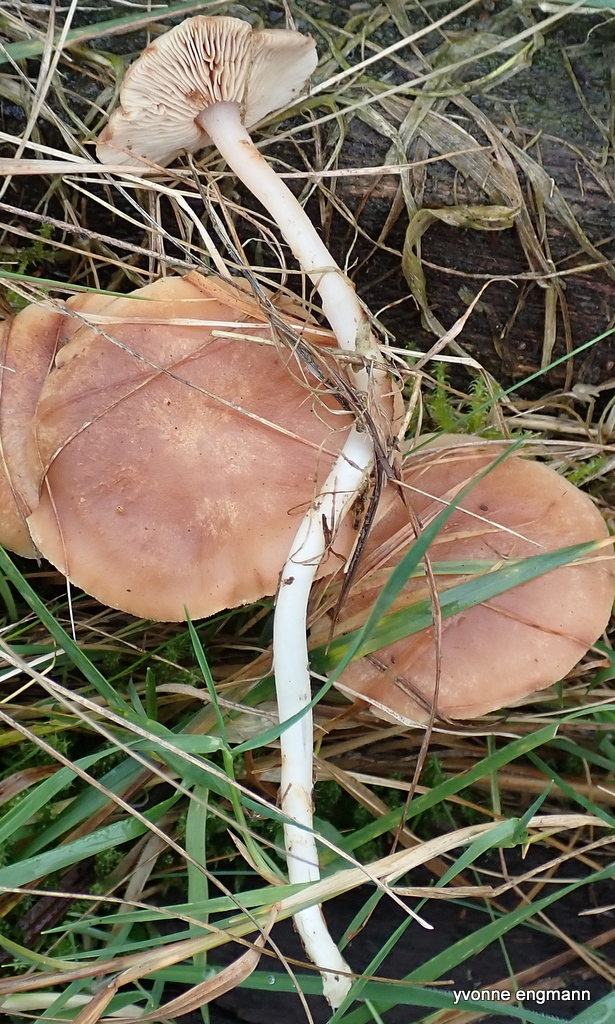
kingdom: Fungi
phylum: Basidiomycota
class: Agaricomycetes
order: Agaricales
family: Omphalotaceae
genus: Rhodocollybia
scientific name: Rhodocollybia
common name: fladhat
